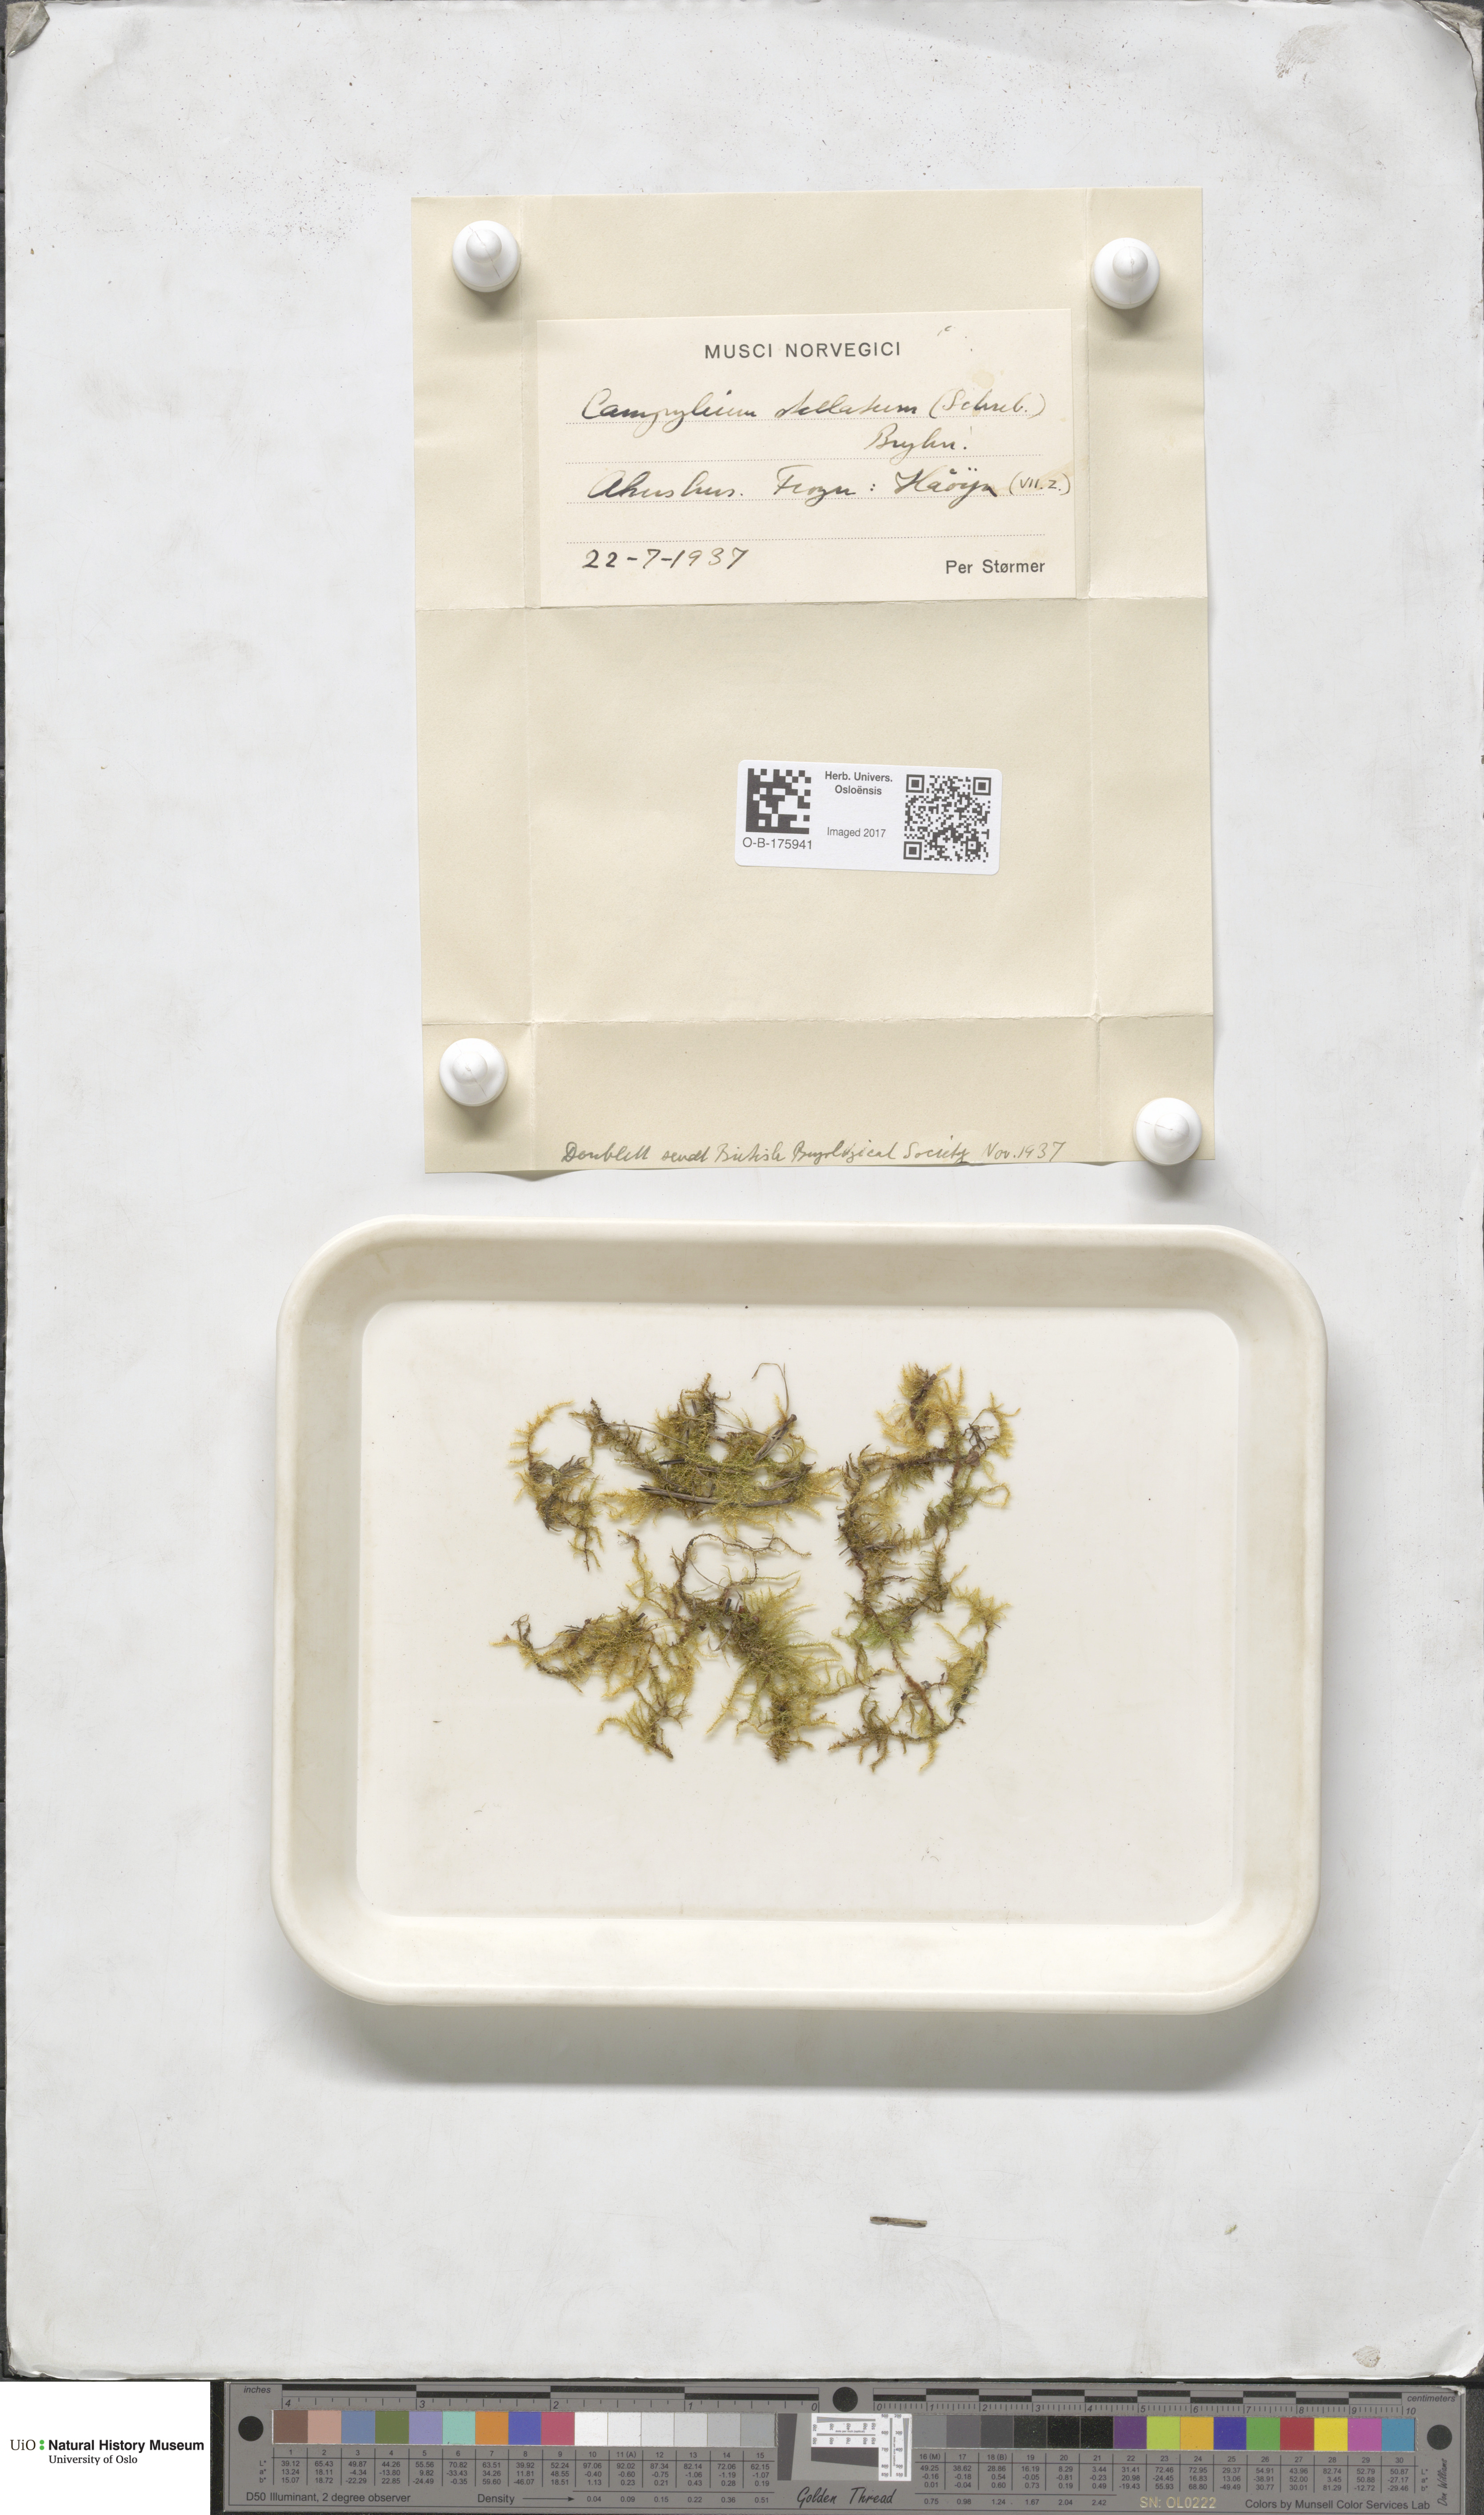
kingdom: Plantae
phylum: Bryophyta
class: Bryopsida
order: Hypnales
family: Amblystegiaceae
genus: Campylium
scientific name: Campylium stellatum
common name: Yellow starry fen moss
